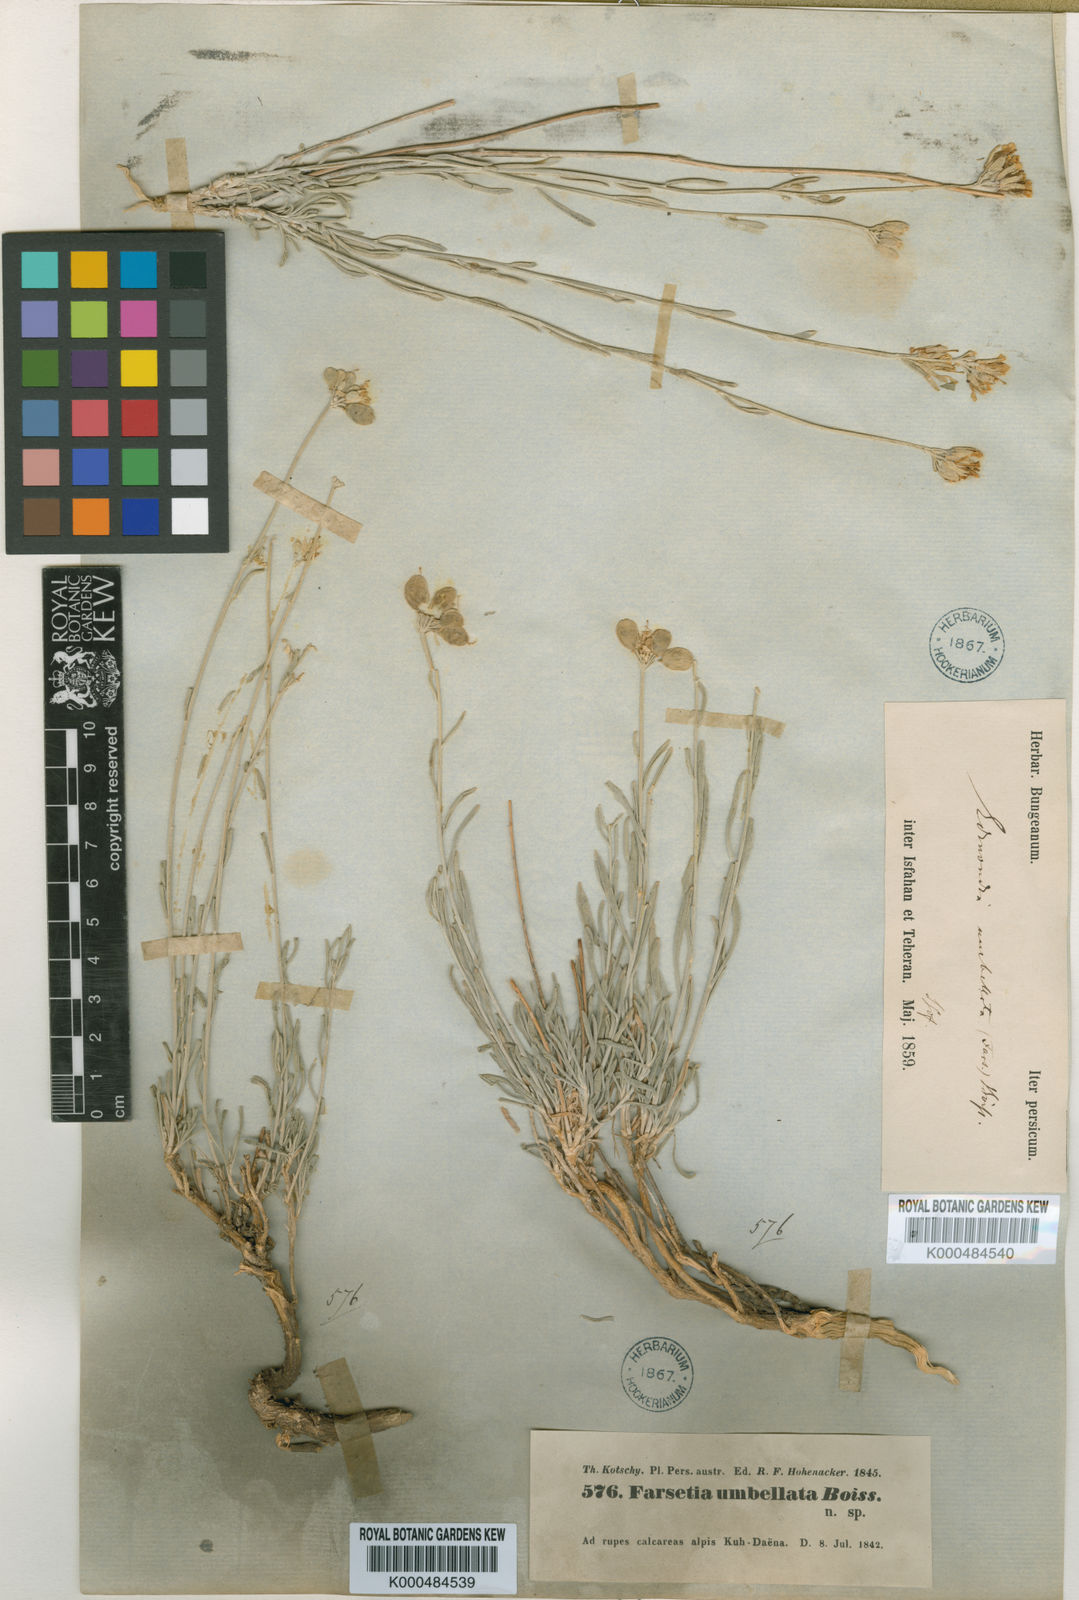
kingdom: Plantae
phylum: Tracheophyta
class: Magnoliopsida
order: Brassicales
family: Brassicaceae
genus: Irania
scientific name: Irania umbellata
